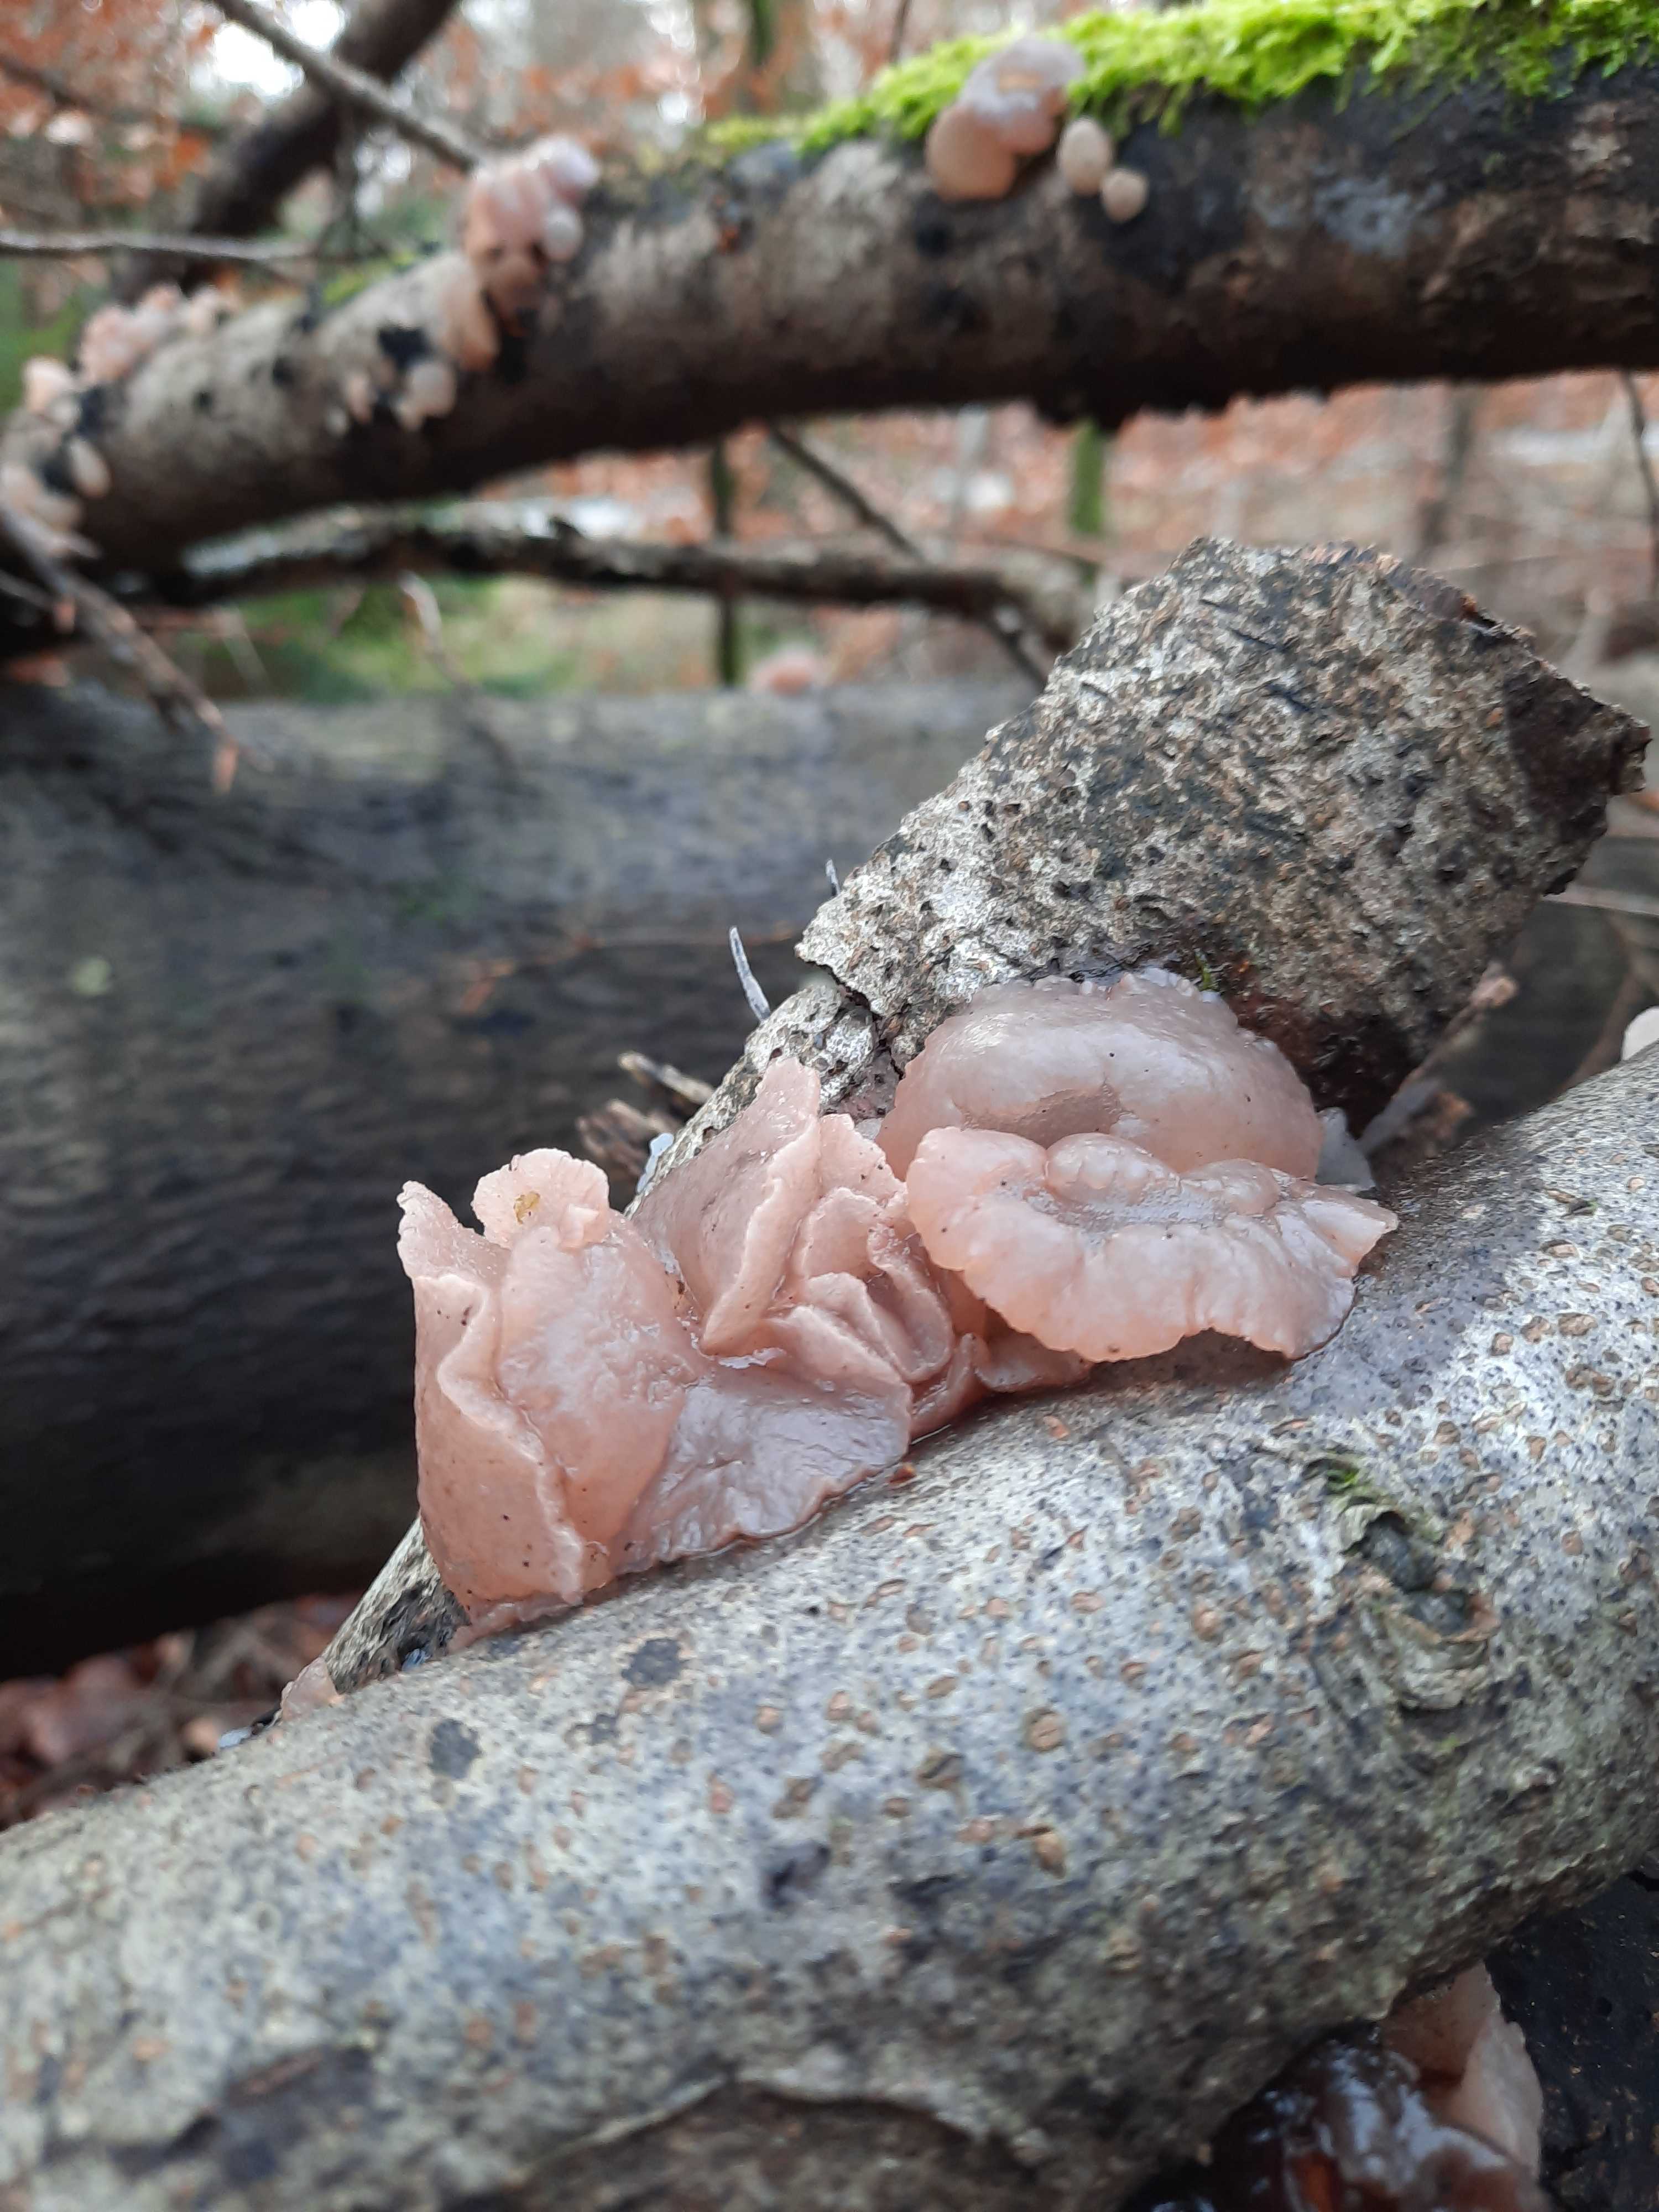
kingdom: Fungi
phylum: Ascomycota
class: Leotiomycetes
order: Helotiales
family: Gelatinodiscaceae
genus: Neobulgaria
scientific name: Neobulgaria pura
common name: bleg bævreskive
